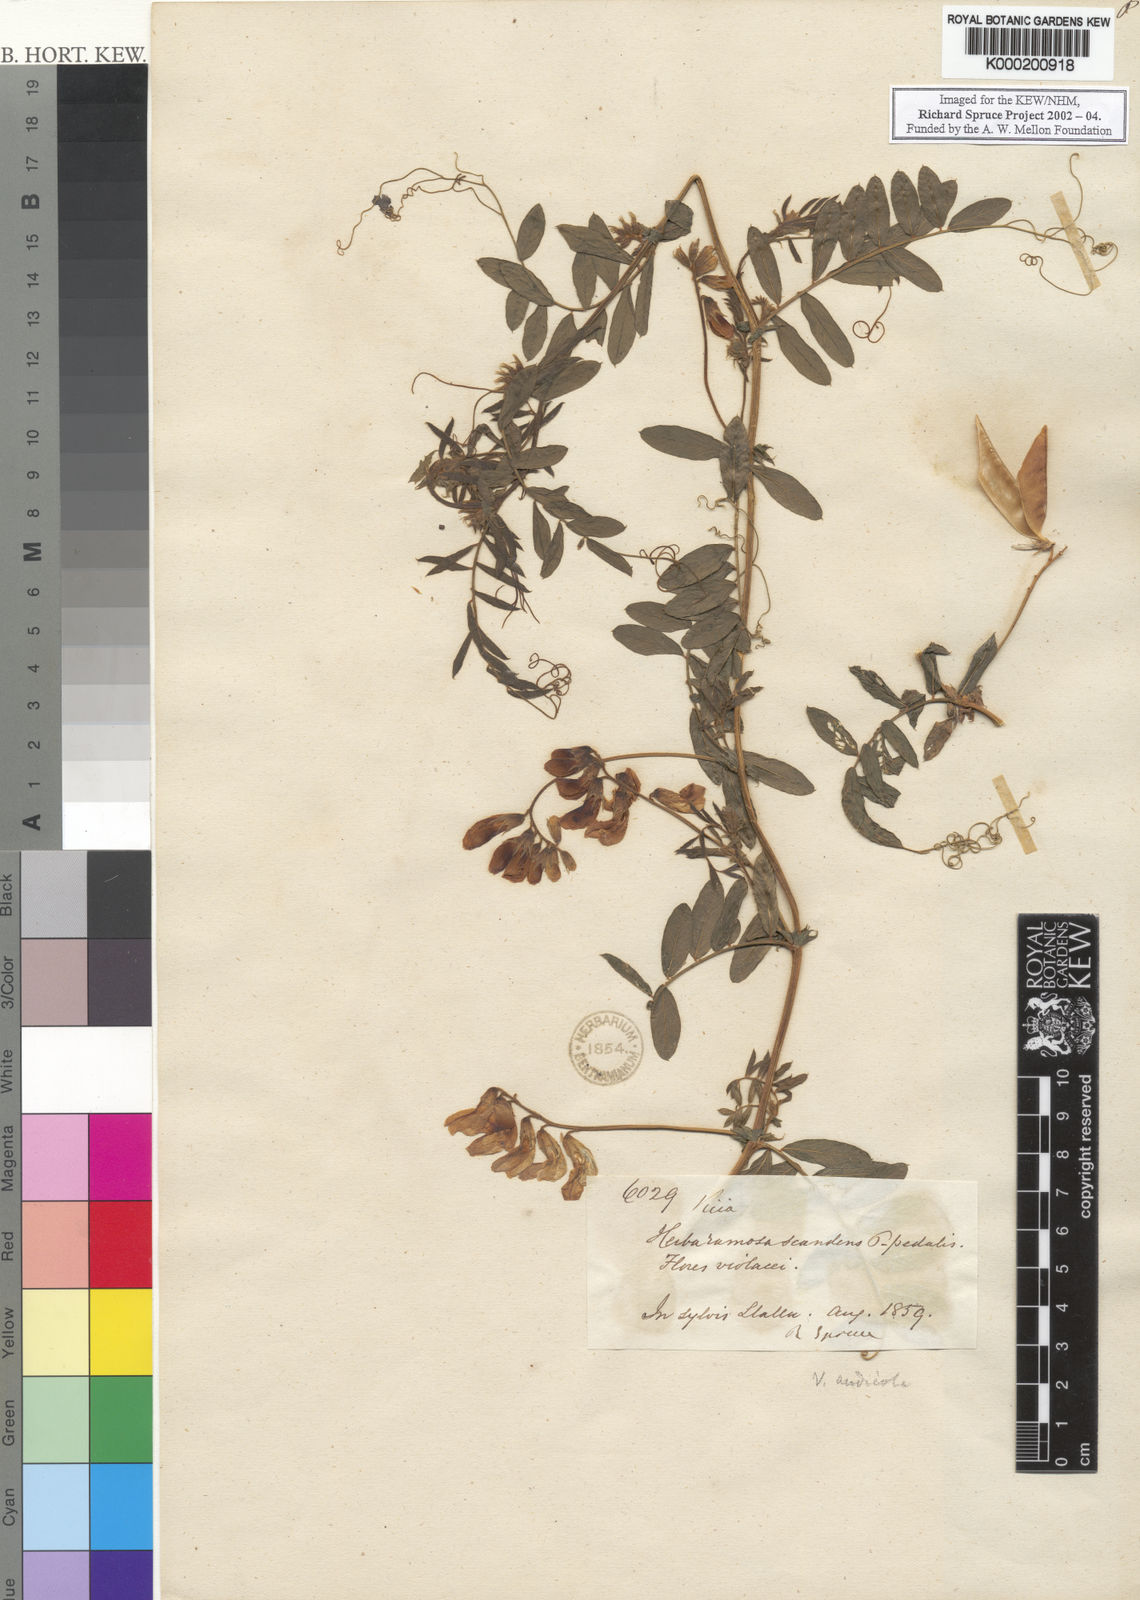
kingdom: Plantae
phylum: Tracheophyta
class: Magnoliopsida
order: Fabales
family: Fabaceae
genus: Vicia
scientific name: Vicia
